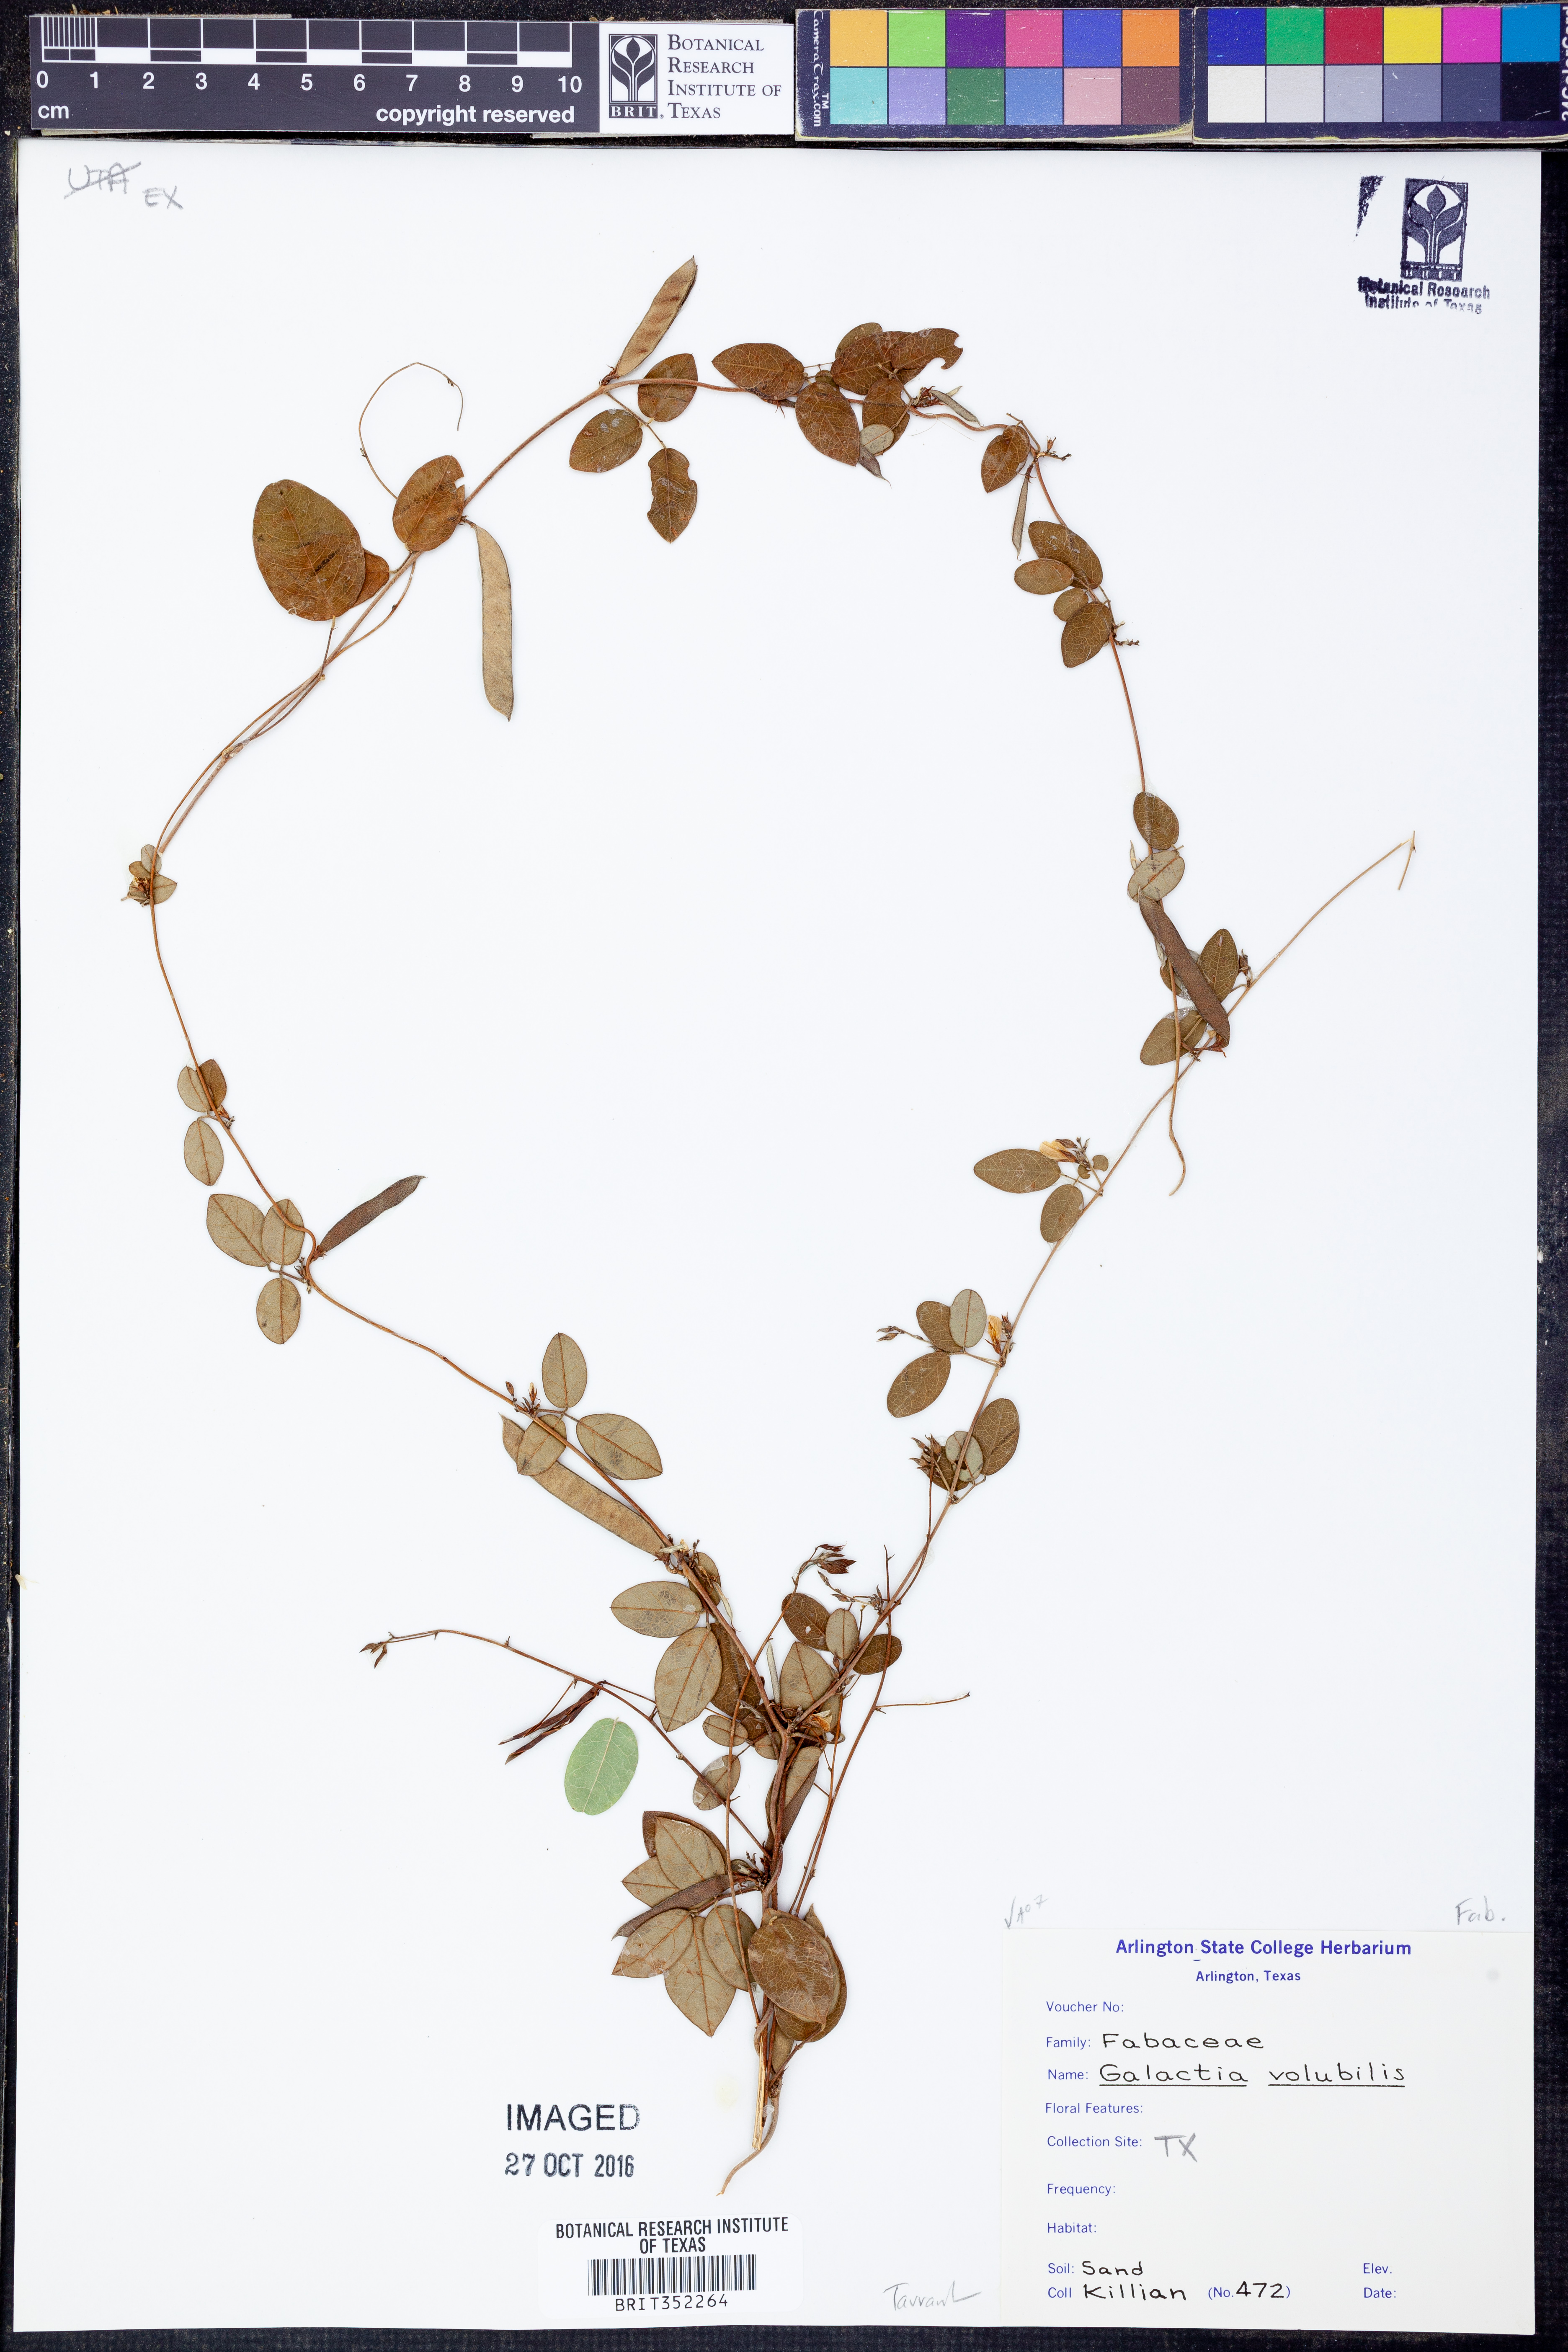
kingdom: Plantae
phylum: Tracheophyta
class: Magnoliopsida
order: Fabales
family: Fabaceae
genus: Galactia
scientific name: Galactia volubilis
